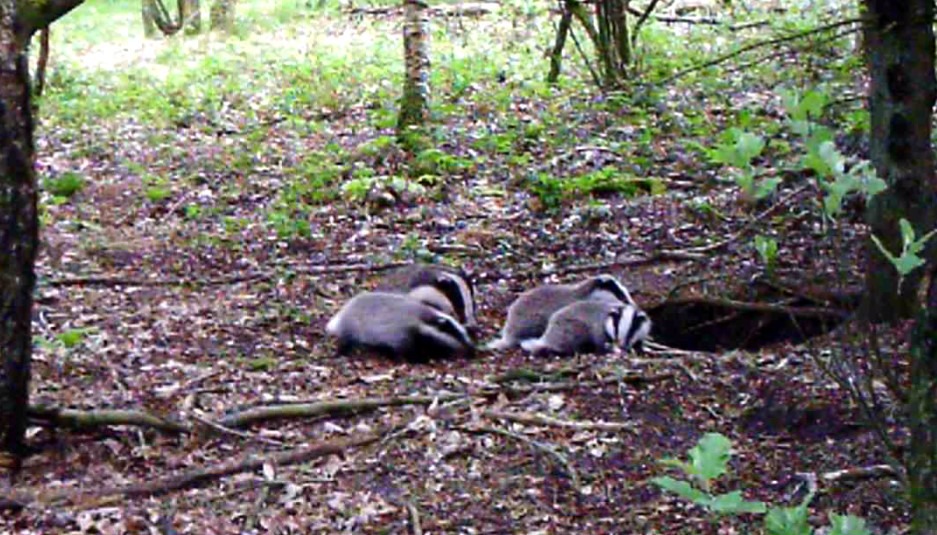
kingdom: Animalia
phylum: Chordata
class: Mammalia
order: Carnivora
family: Mustelidae
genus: Meles
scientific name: Meles meles
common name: Grævling
